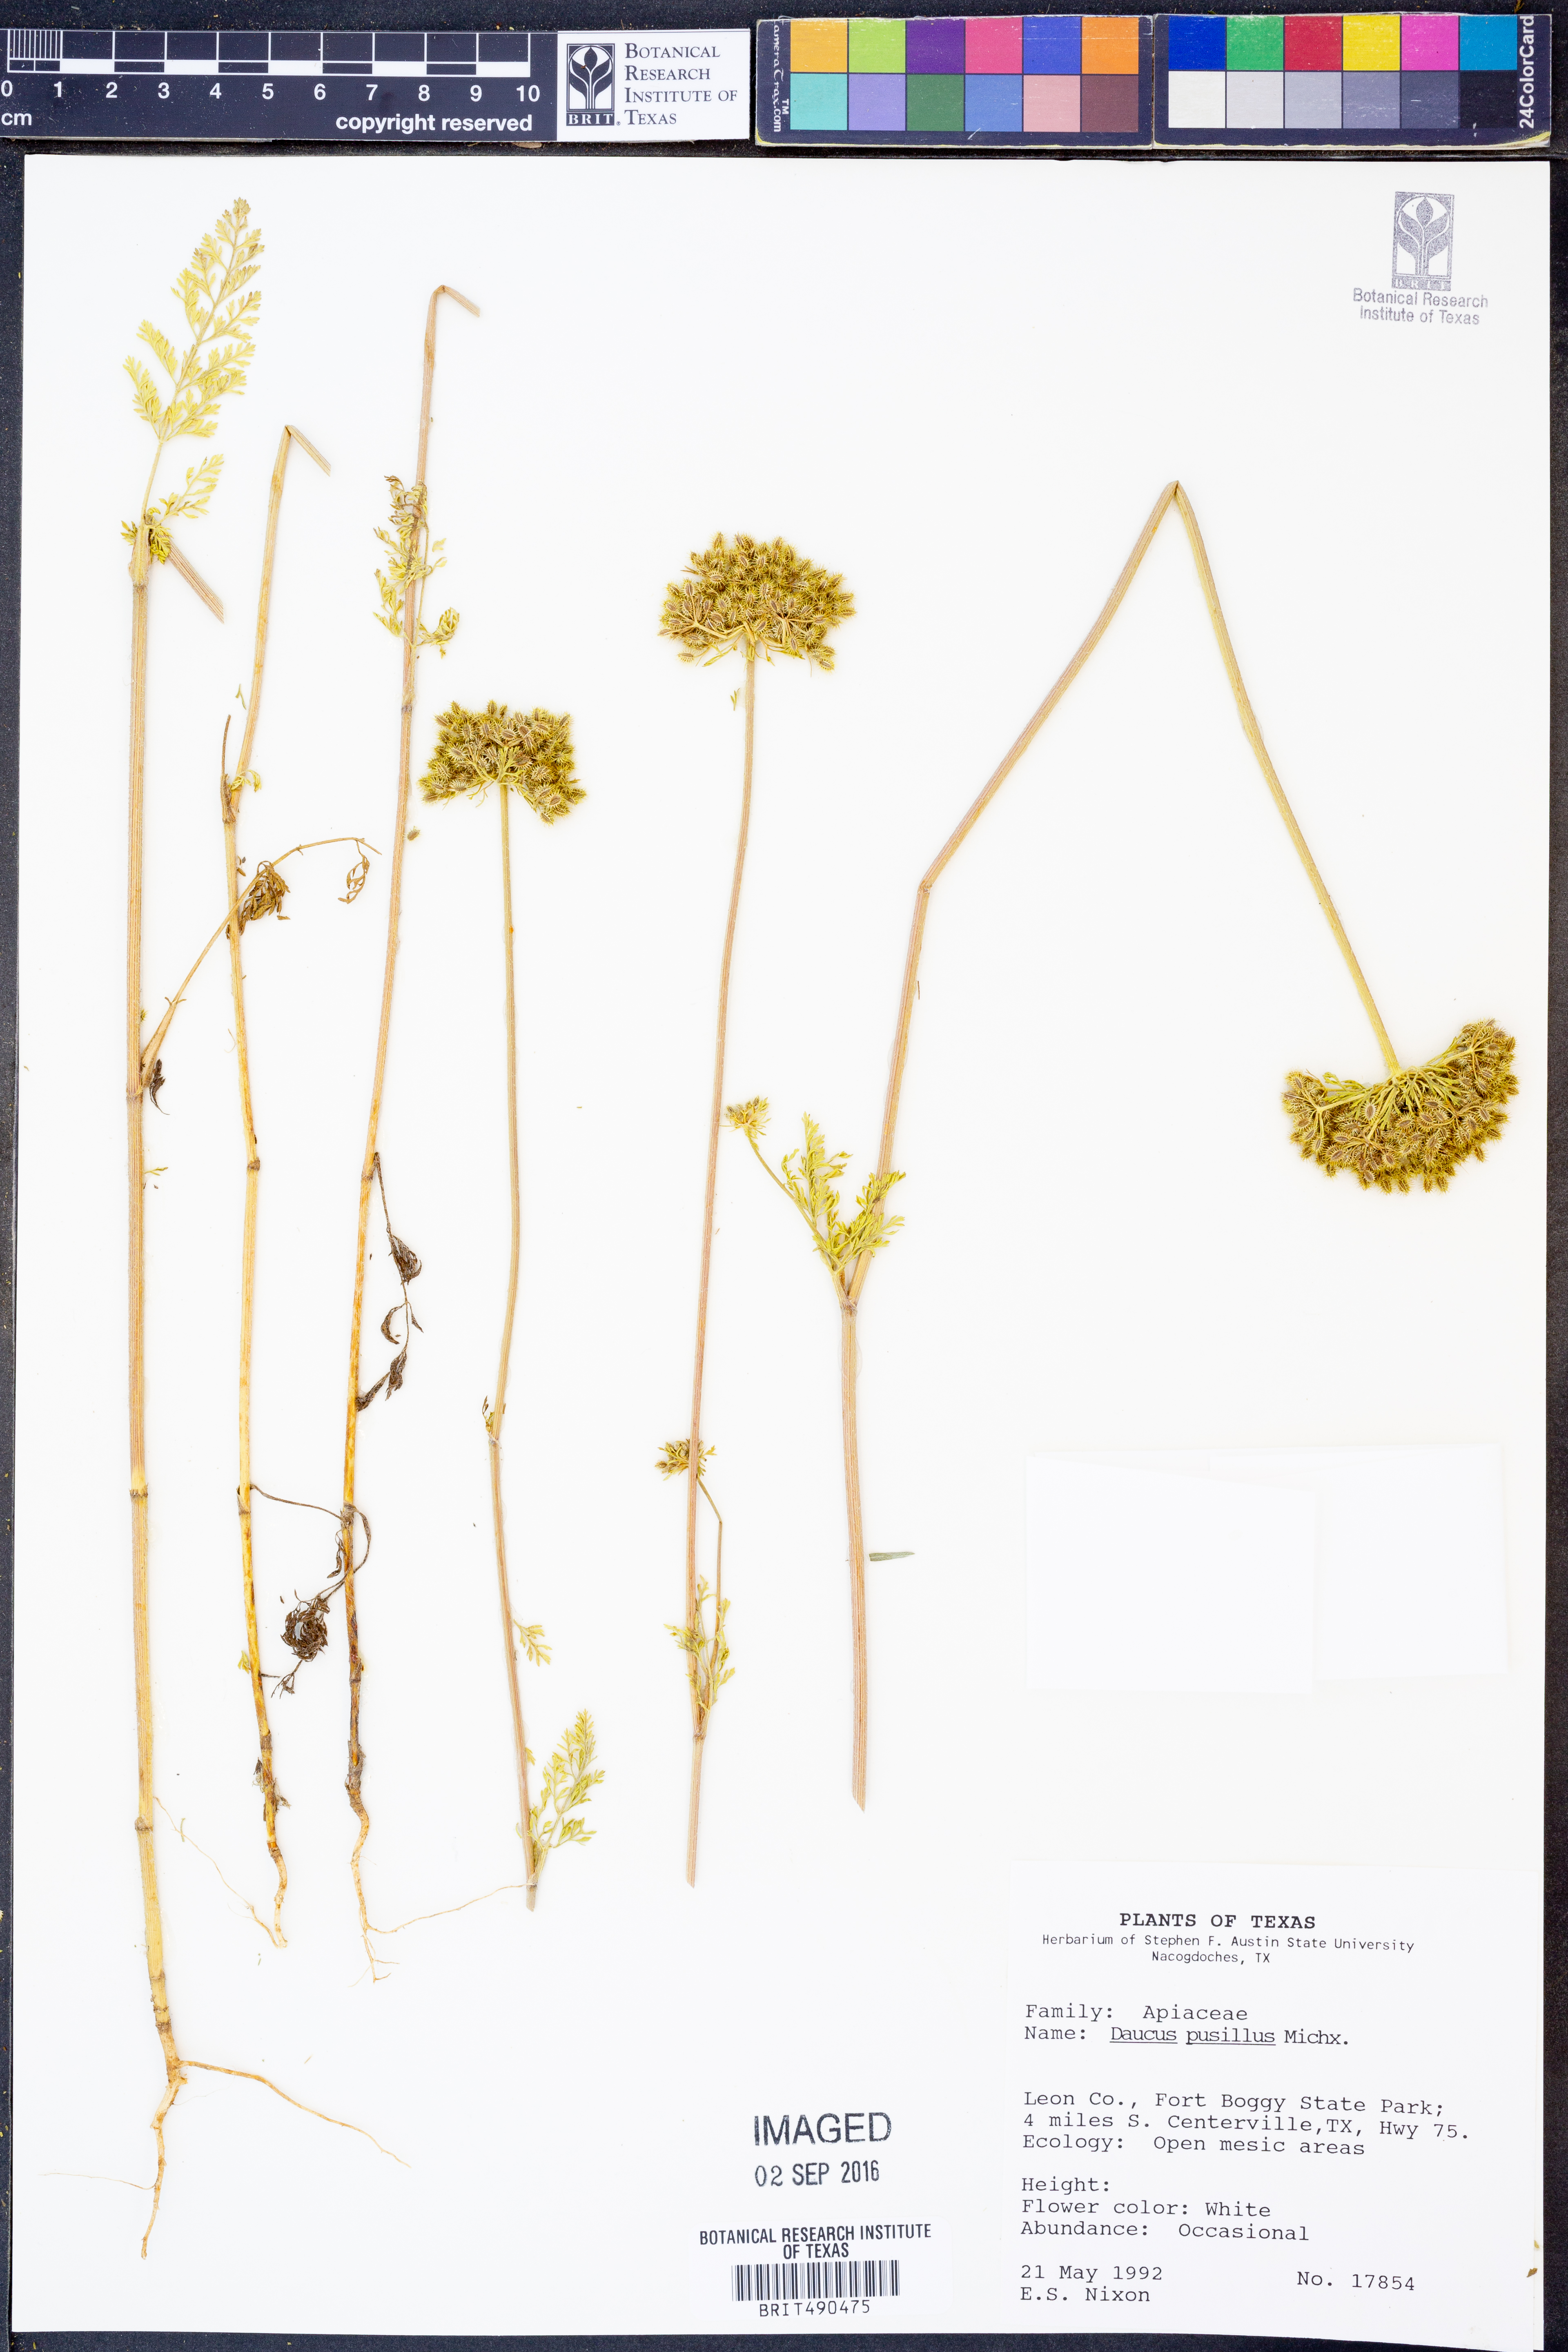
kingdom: Plantae
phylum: Tracheophyta
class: Magnoliopsida
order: Apiales
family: Apiaceae
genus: Daucus
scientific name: Daucus pusillus
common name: Southwest wild carrot
